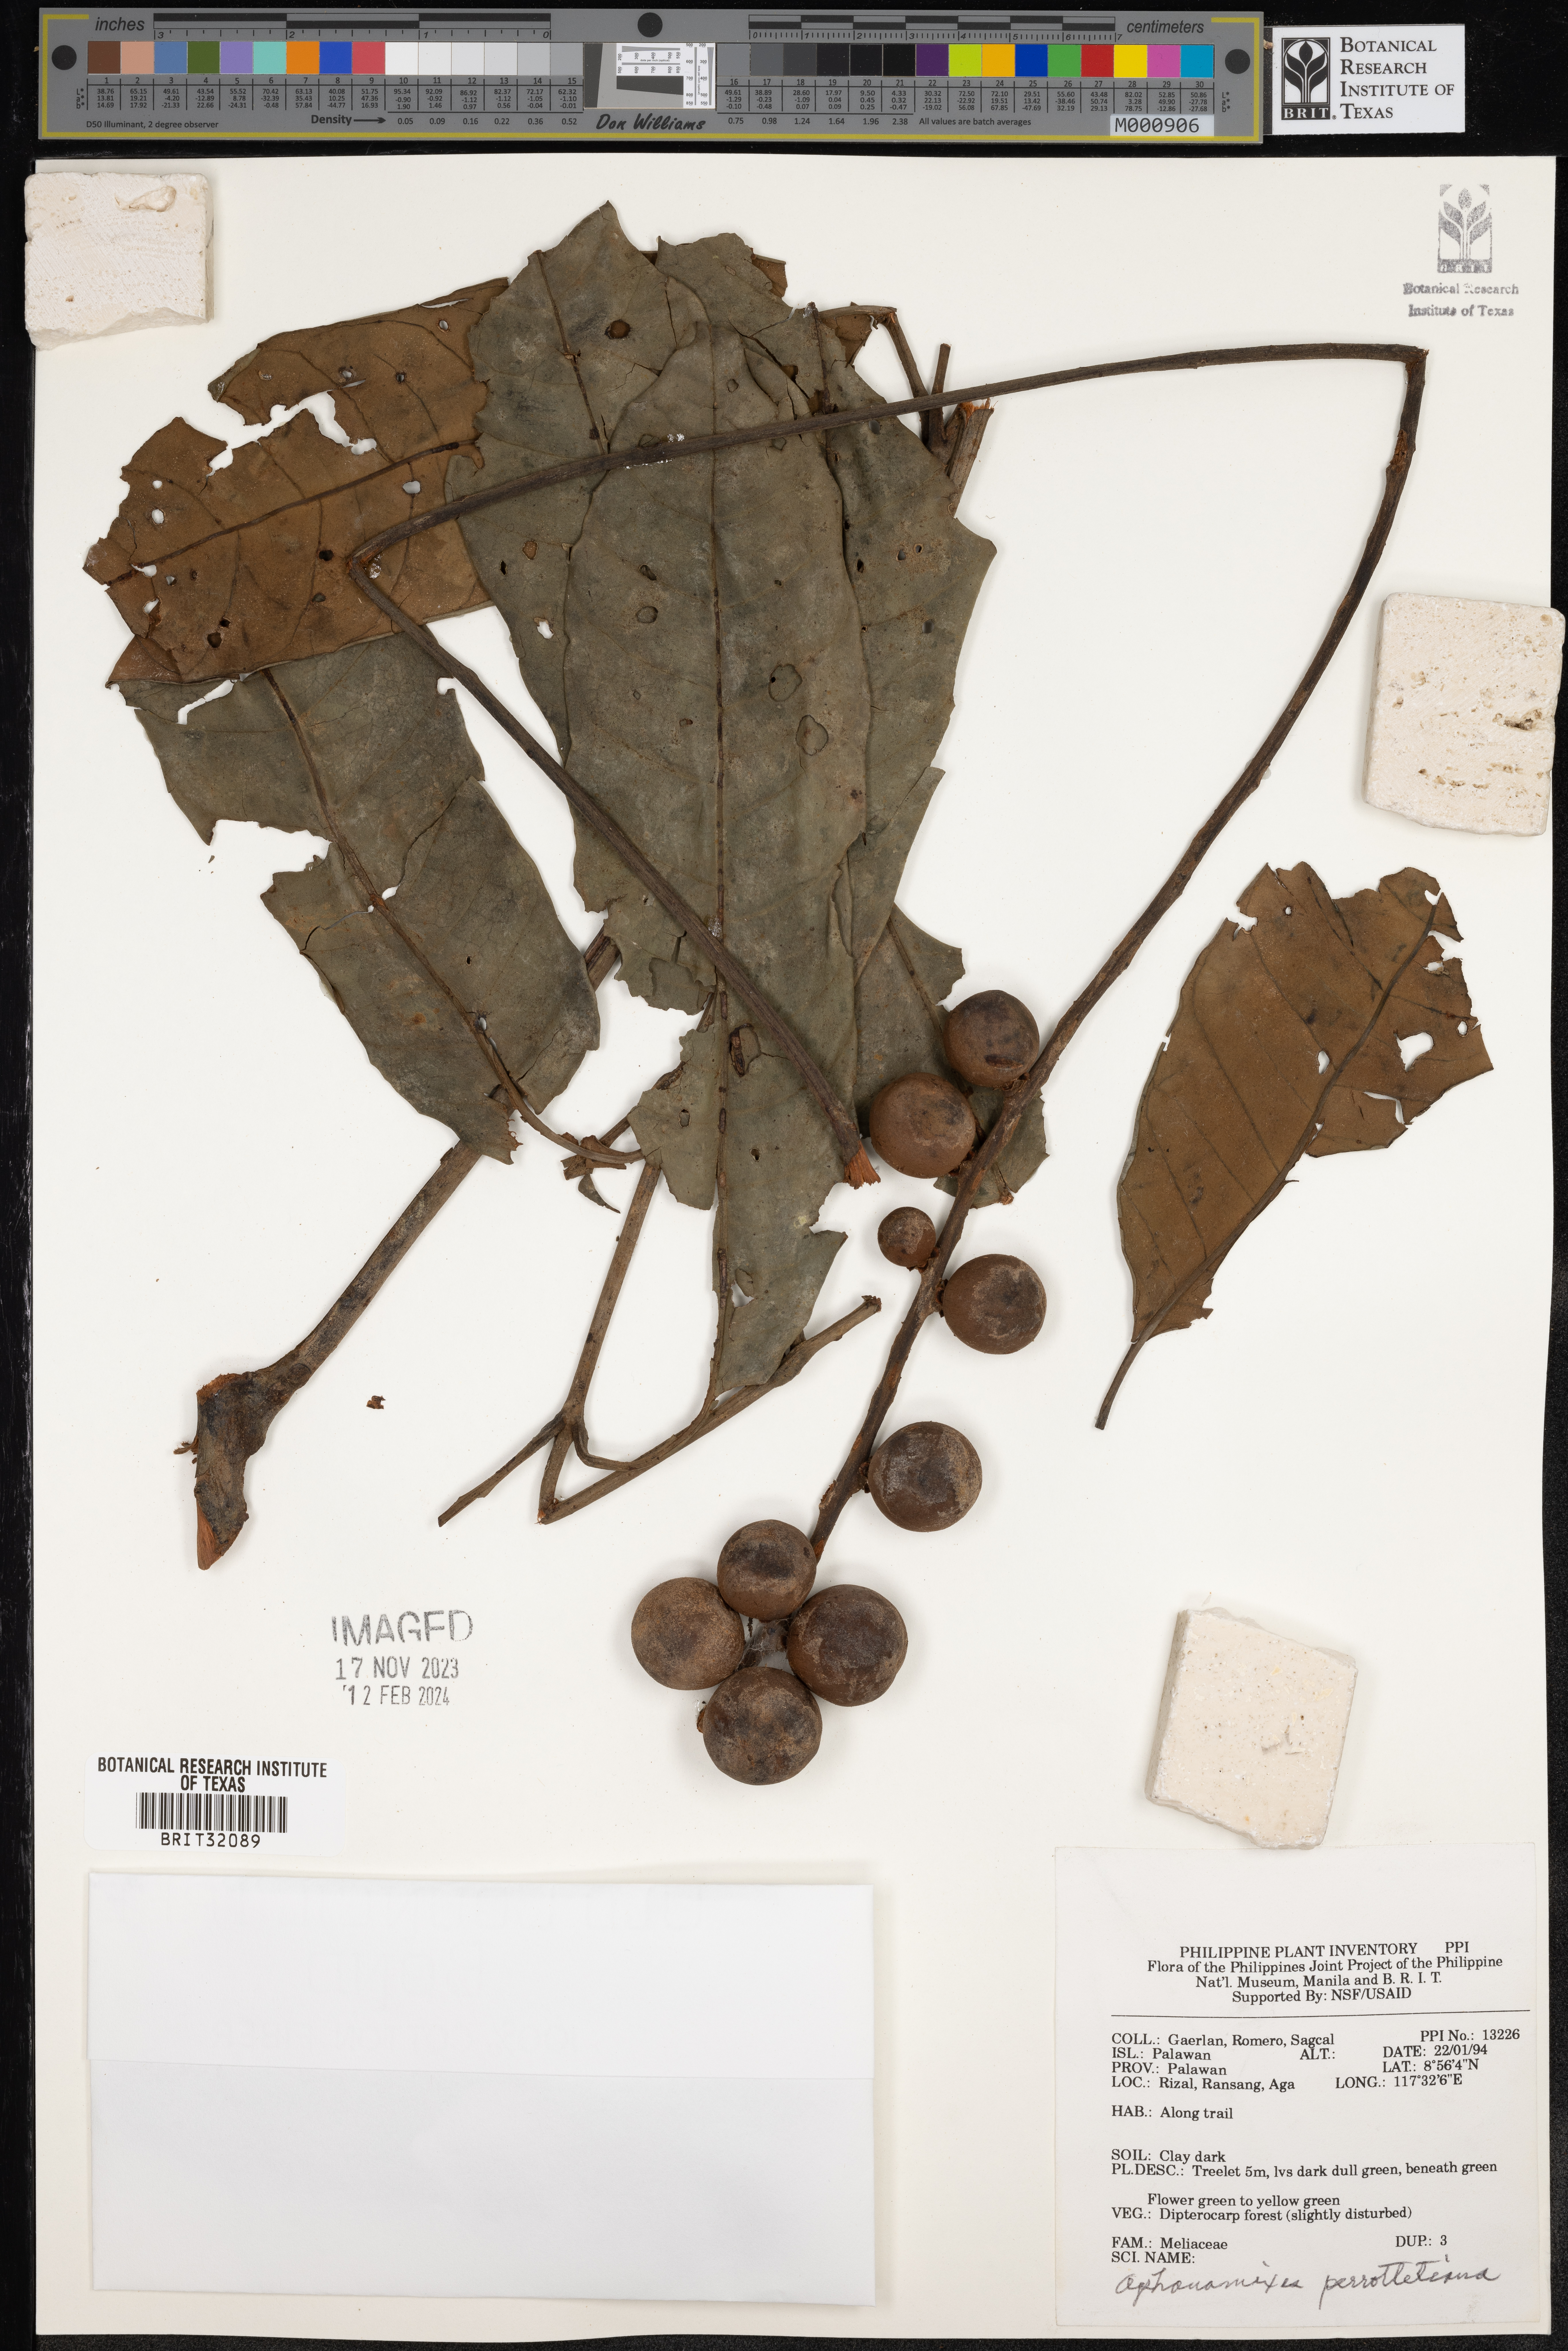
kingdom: Plantae
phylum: Tracheophyta
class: Magnoliopsida
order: Sapindales
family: Meliaceae
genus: Aphanamixis
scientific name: Aphanamixis polystachya
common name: Pithraj tree
